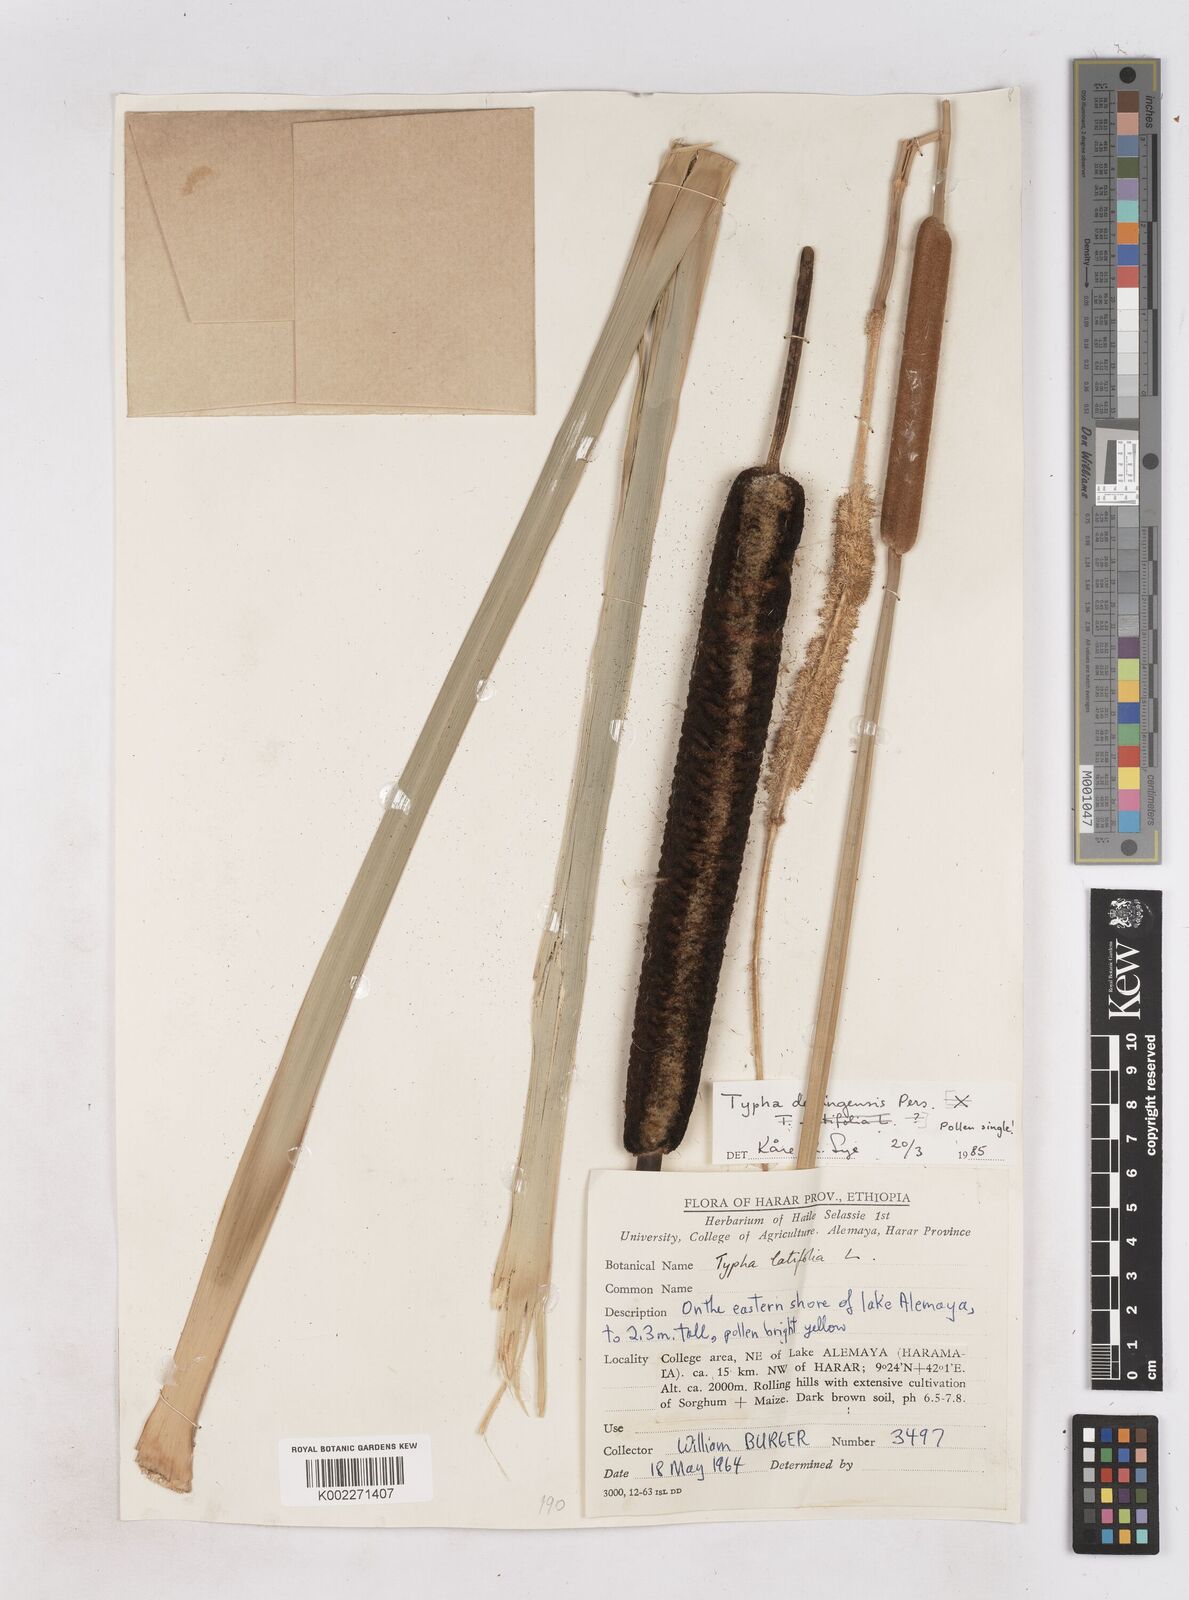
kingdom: Plantae
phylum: Tracheophyta
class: Liliopsida
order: Poales
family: Typhaceae
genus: Typha
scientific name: Typha domingensis
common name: Southern cattail
